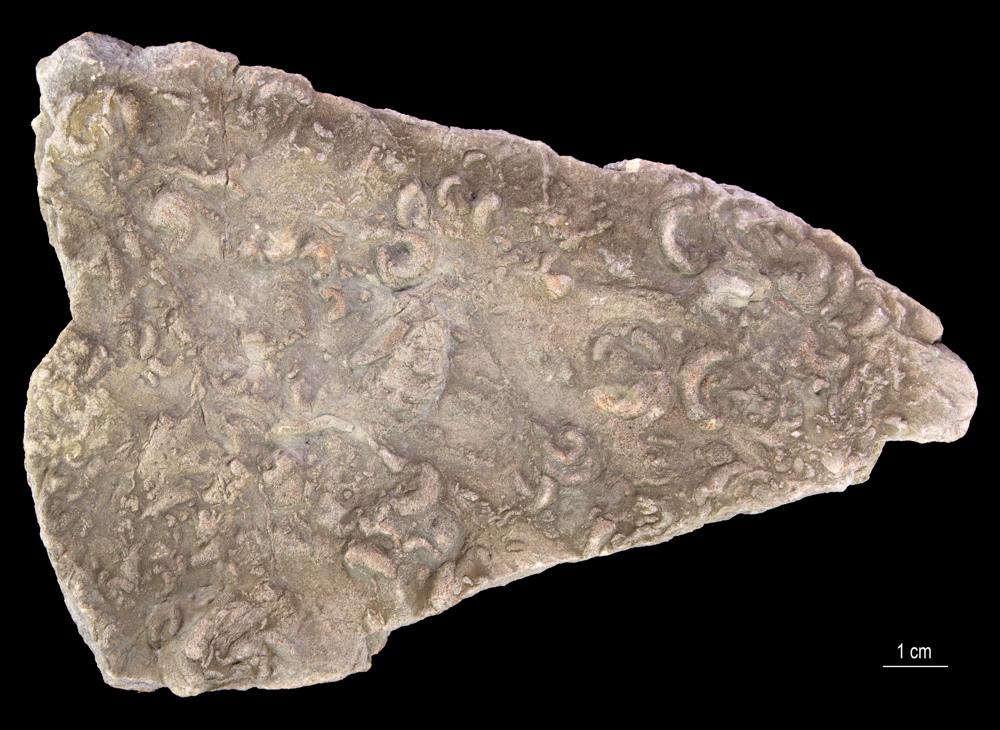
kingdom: Animalia
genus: Gyrolithes
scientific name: Gyrolithes
